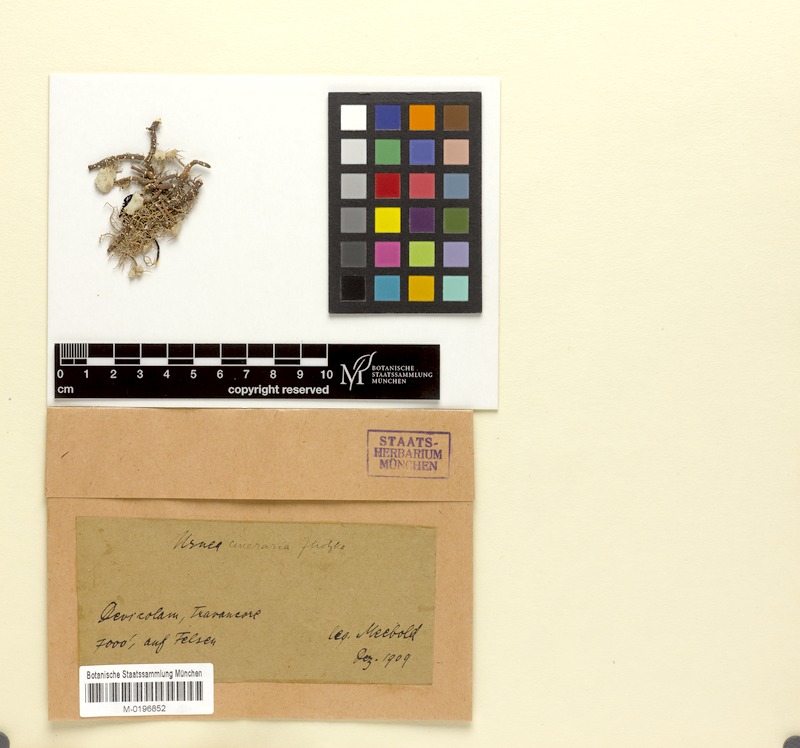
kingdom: Fungi
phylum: Ascomycota
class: Lecanoromycetes
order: Lecanorales
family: Parmeliaceae
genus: Usnea
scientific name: Usnea
